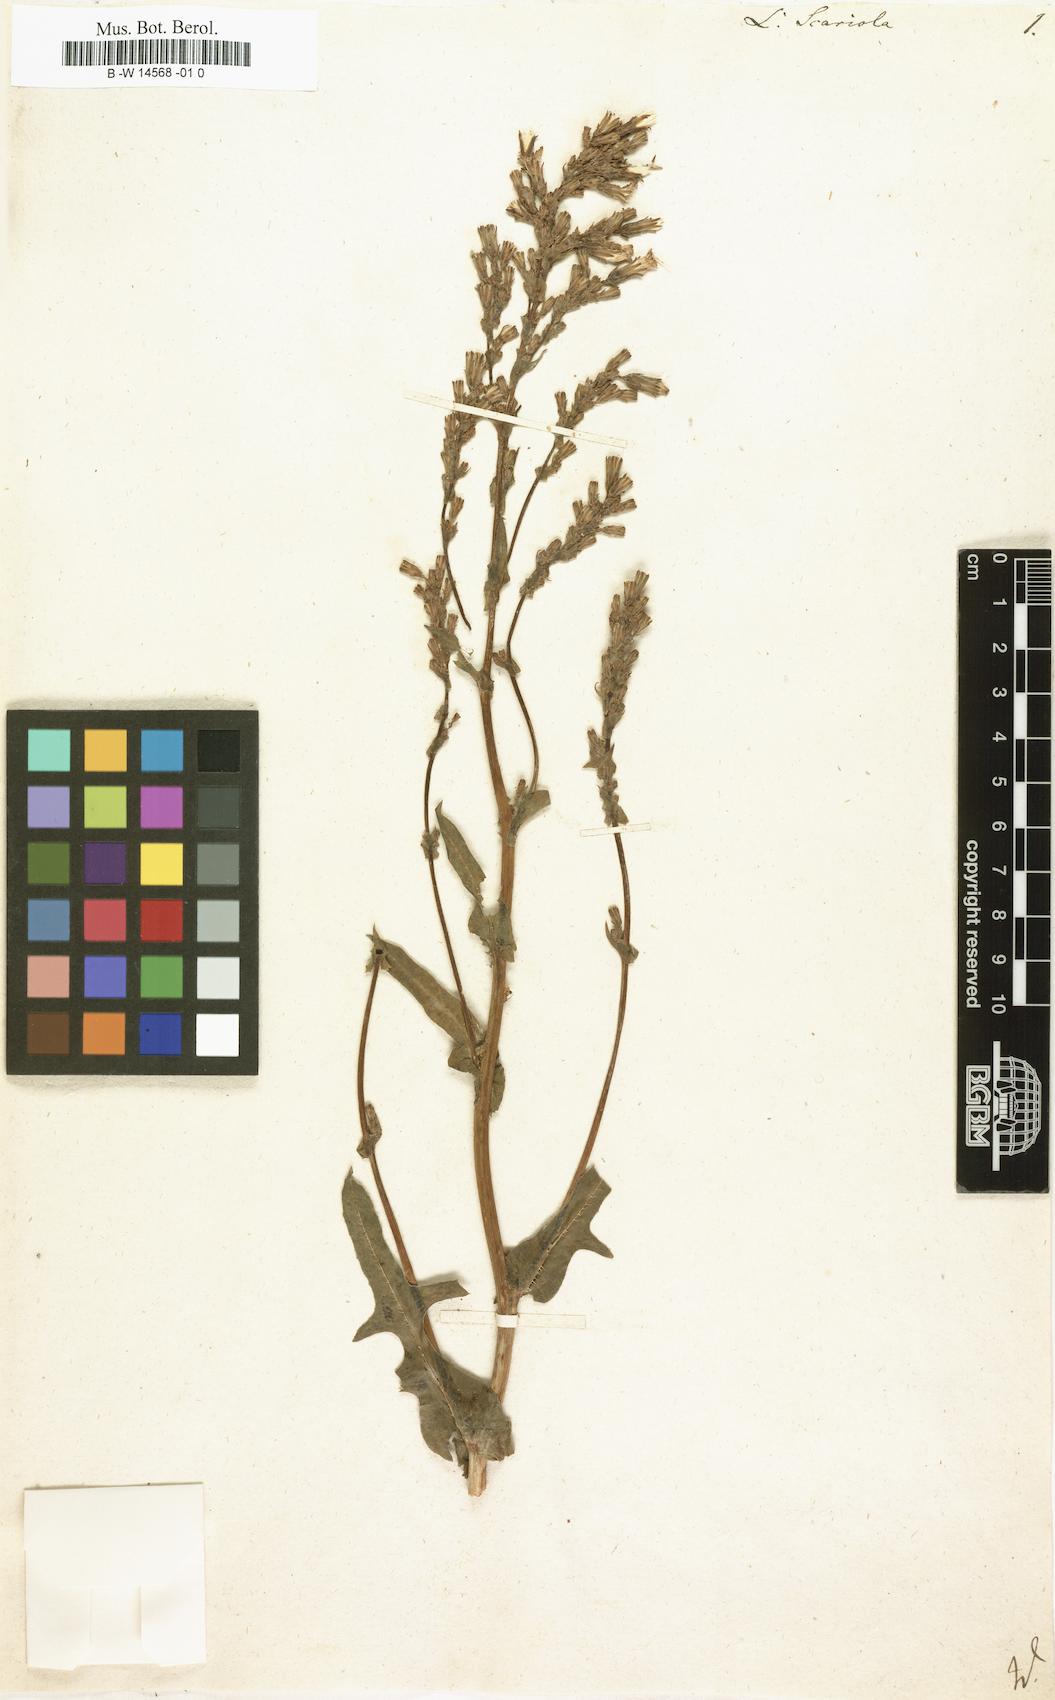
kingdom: Plantae
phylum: Tracheophyta
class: Magnoliopsida
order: Asterales
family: Asteraceae
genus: Lactuca
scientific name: Lactuca serriola
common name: Prickly lettuce
